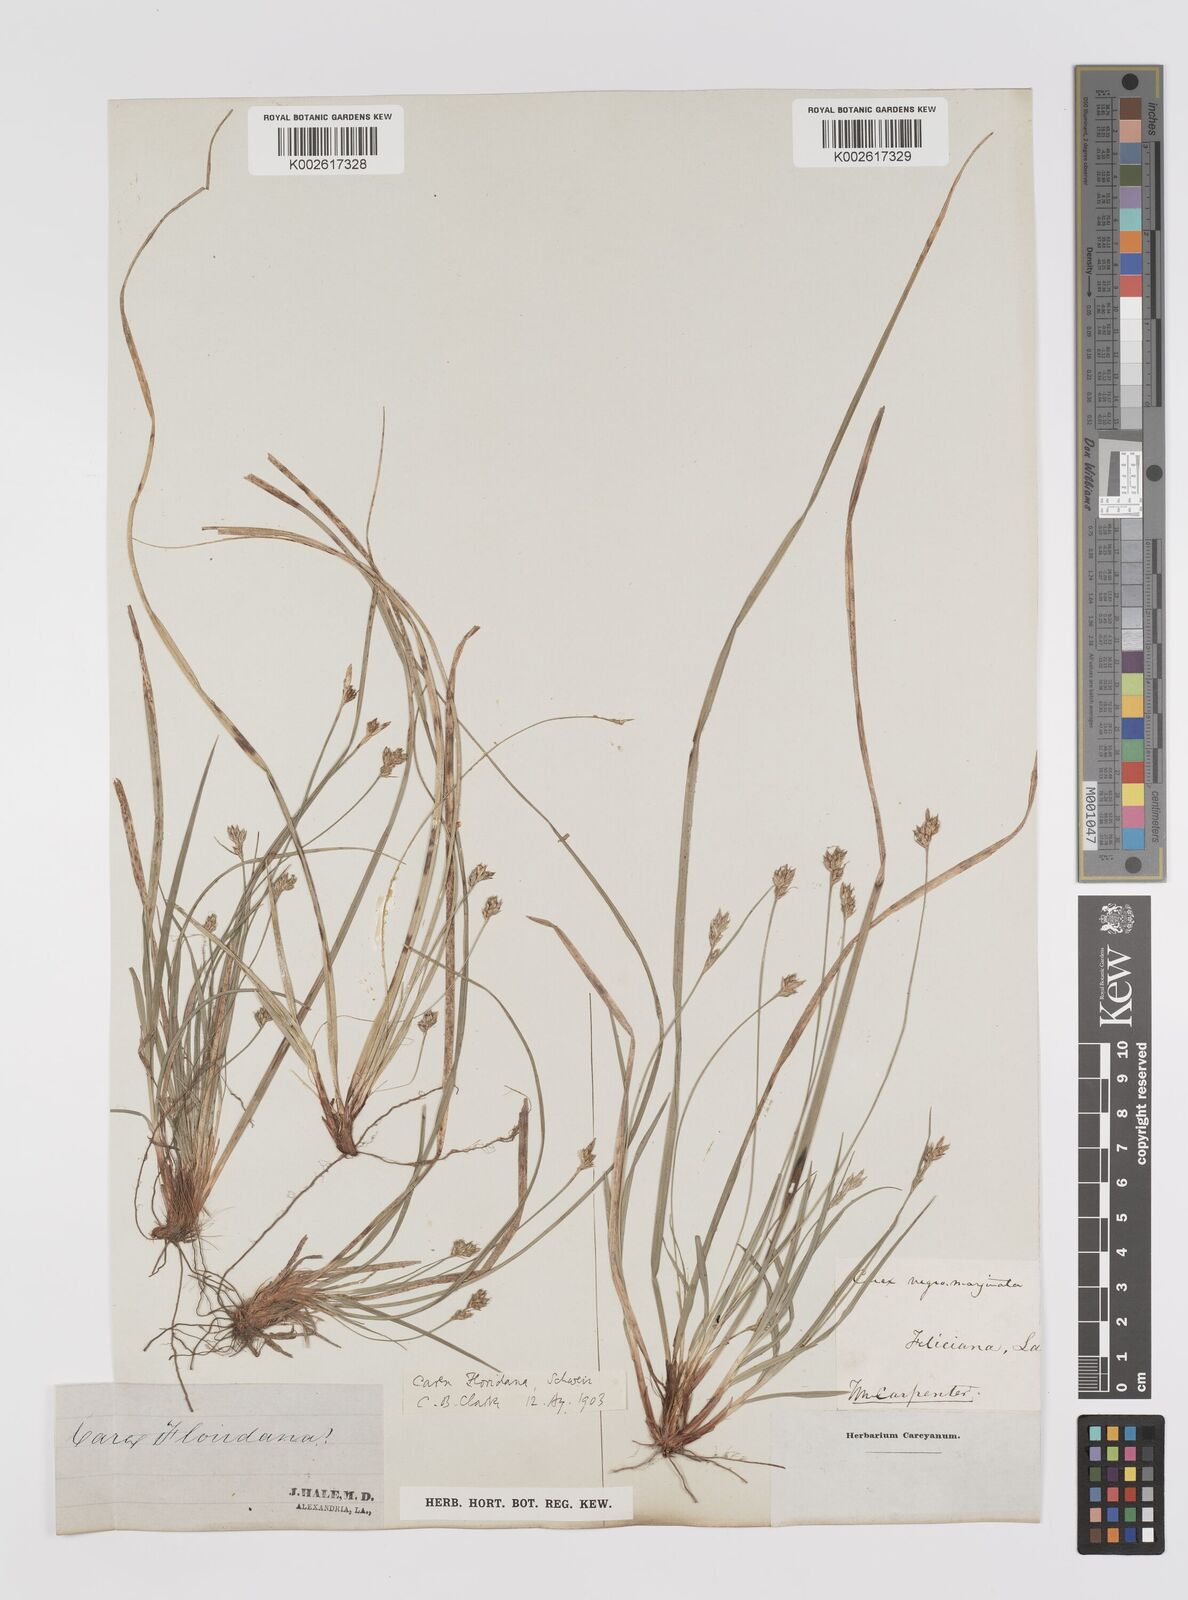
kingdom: Plantae
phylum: Tracheophyta
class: Liliopsida
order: Poales
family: Cyperaceae
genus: Carex
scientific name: Carex floridana
